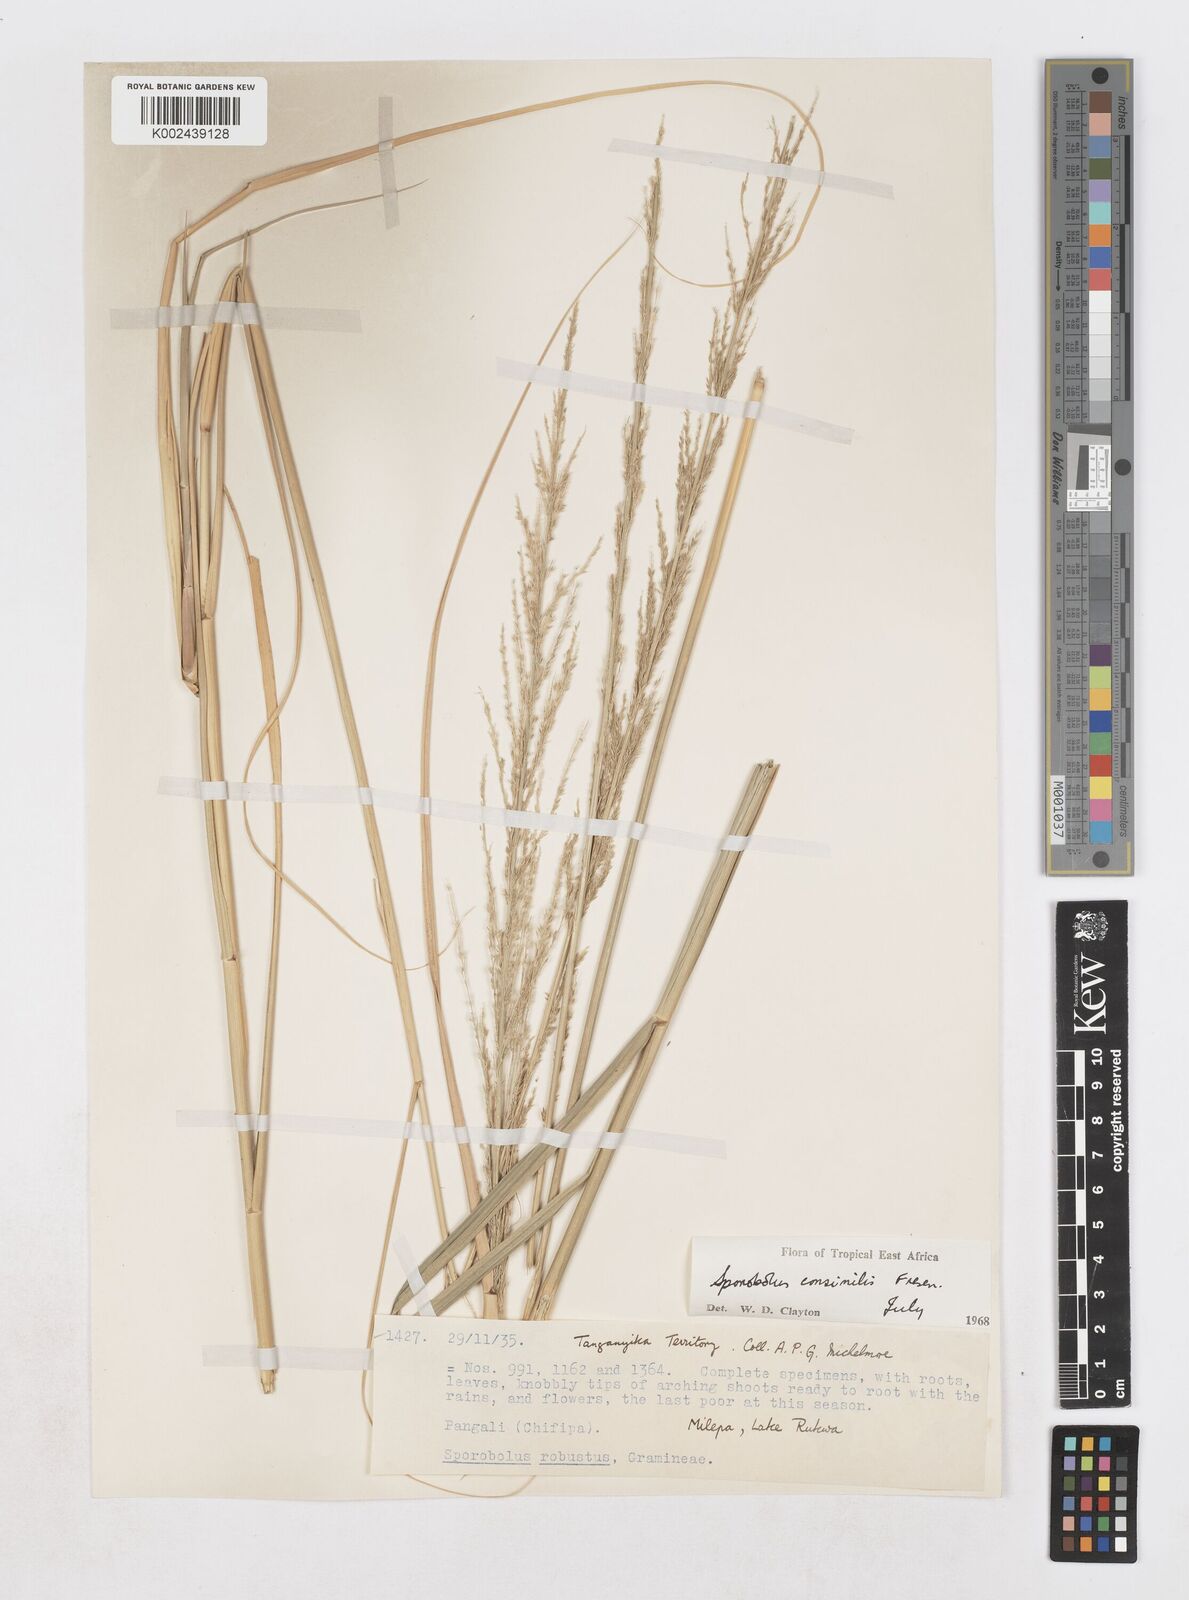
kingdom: Plantae
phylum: Tracheophyta
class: Liliopsida
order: Poales
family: Poaceae
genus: Sporobolus
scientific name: Sporobolus consimilis
